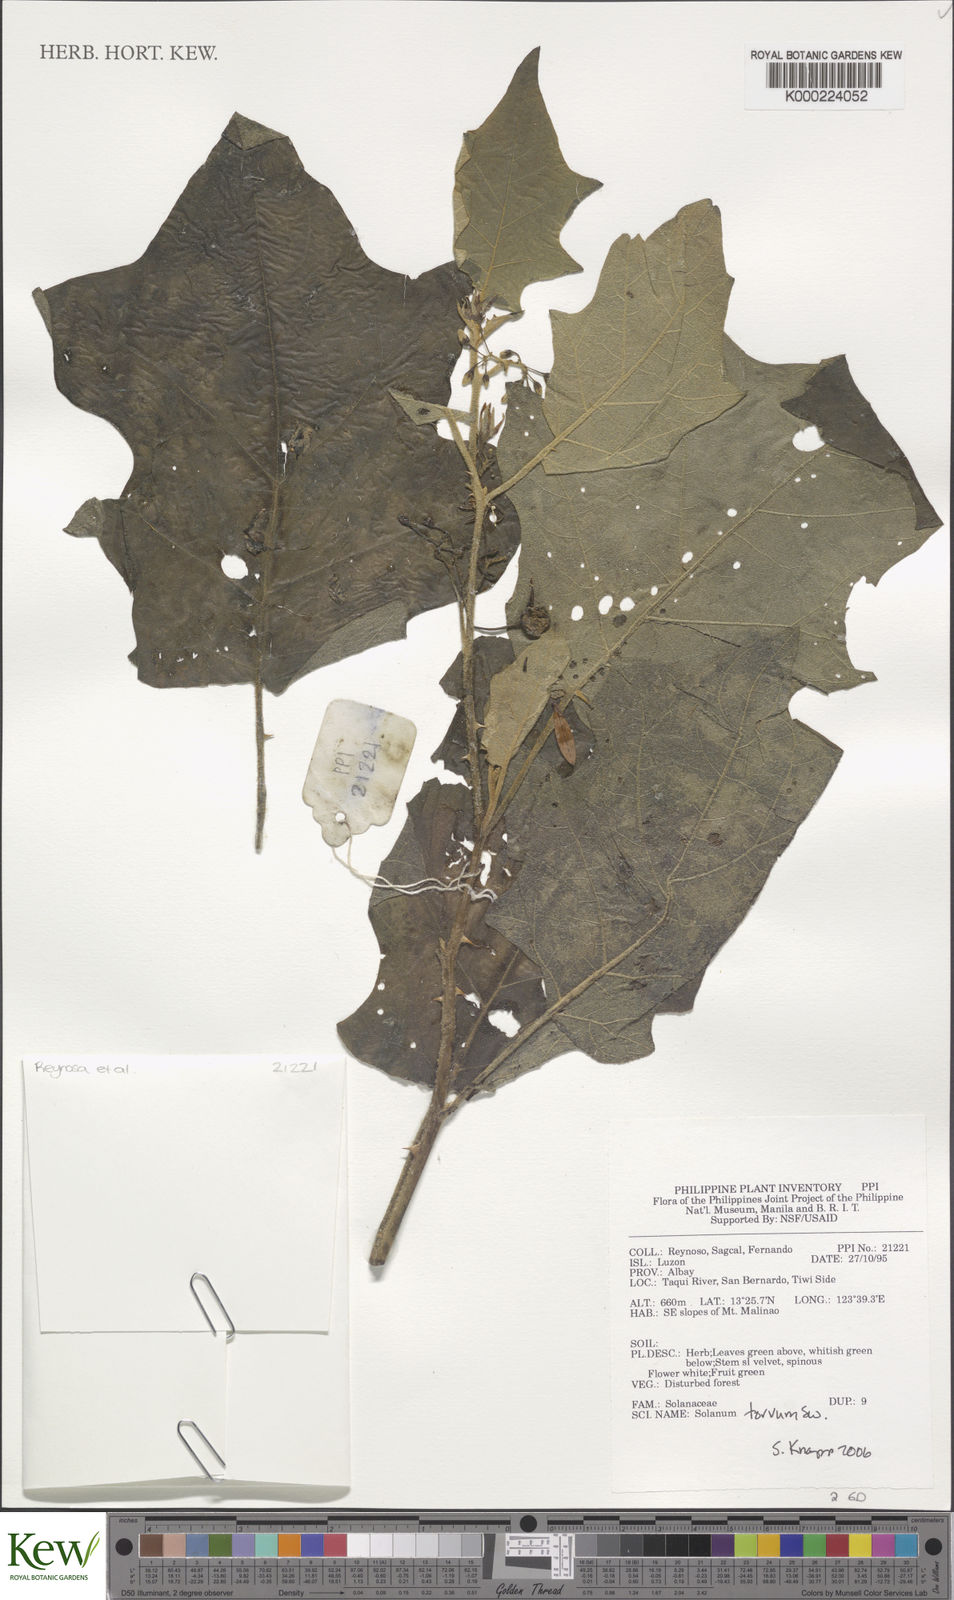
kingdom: Plantae
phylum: Tracheophyta
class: Magnoliopsida
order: Solanales
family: Solanaceae
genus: Solanum
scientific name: Solanum torvum
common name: Turkey berry
